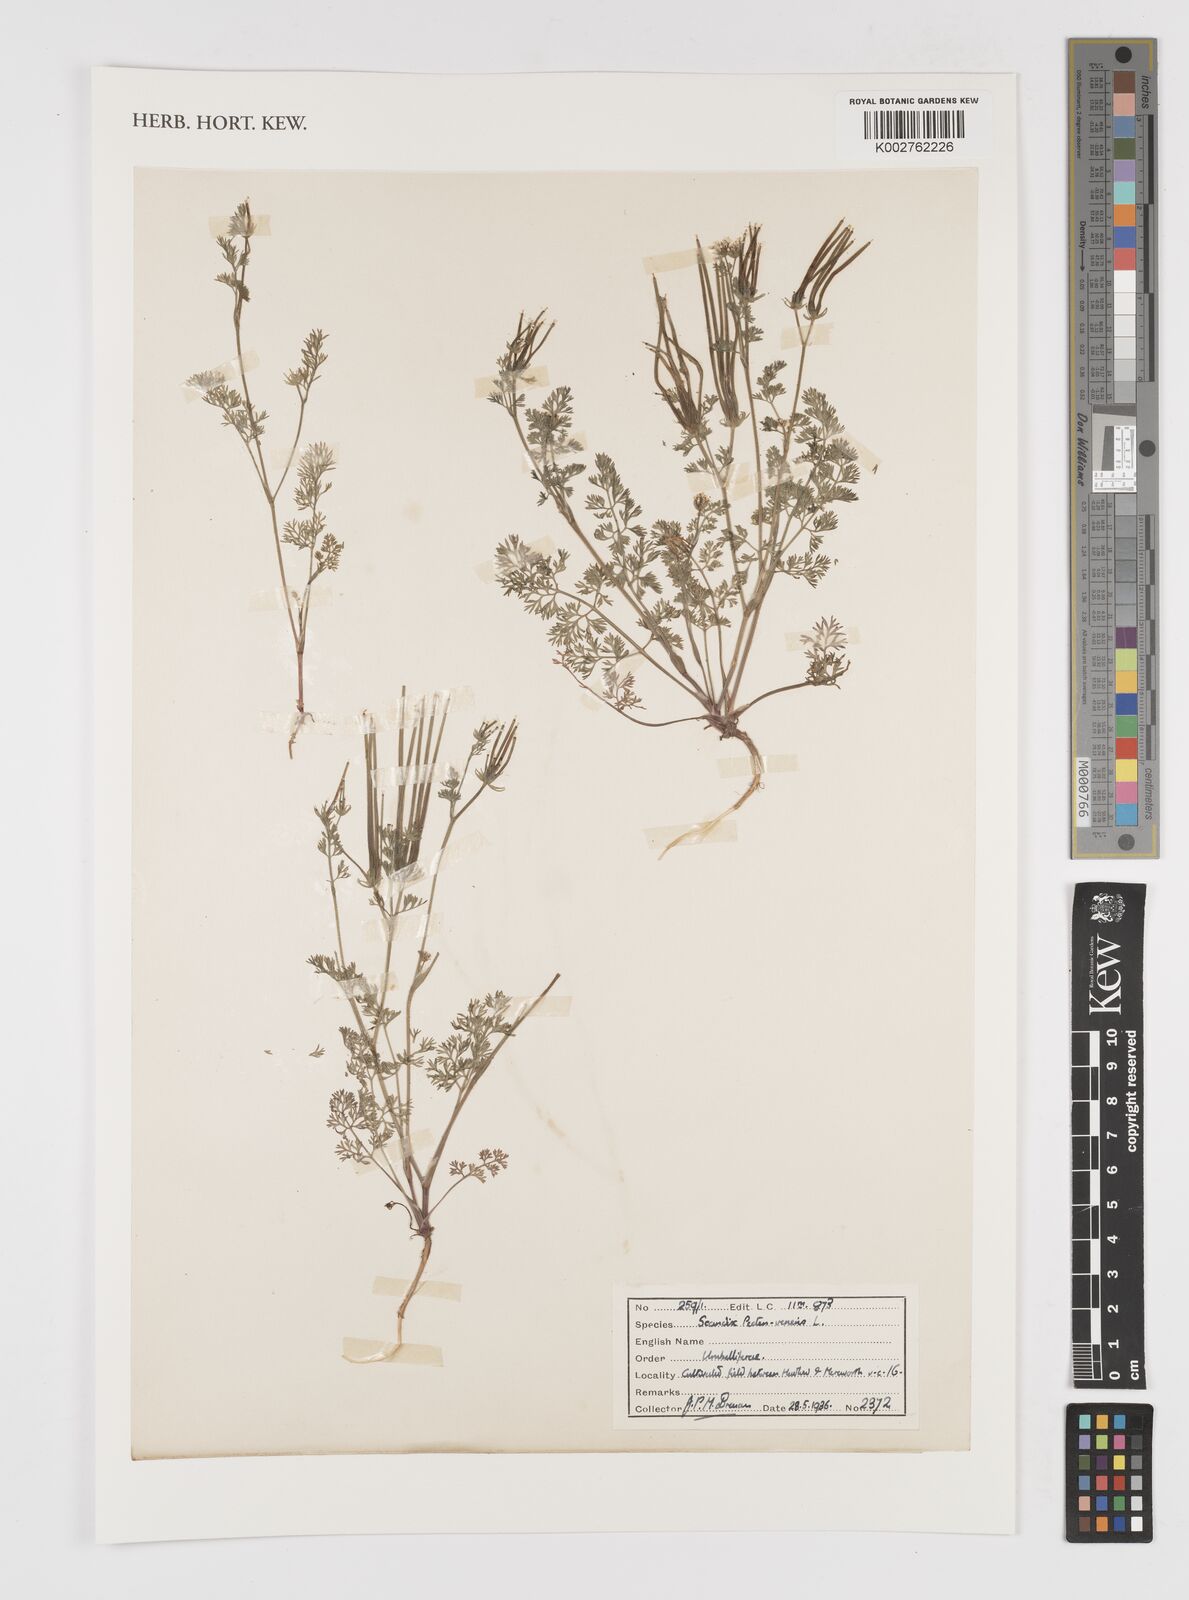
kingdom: Plantae
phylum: Tracheophyta
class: Magnoliopsida
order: Apiales
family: Apiaceae
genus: Scandix
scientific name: Scandix pecten-veneris
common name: Shepherd's-needle
